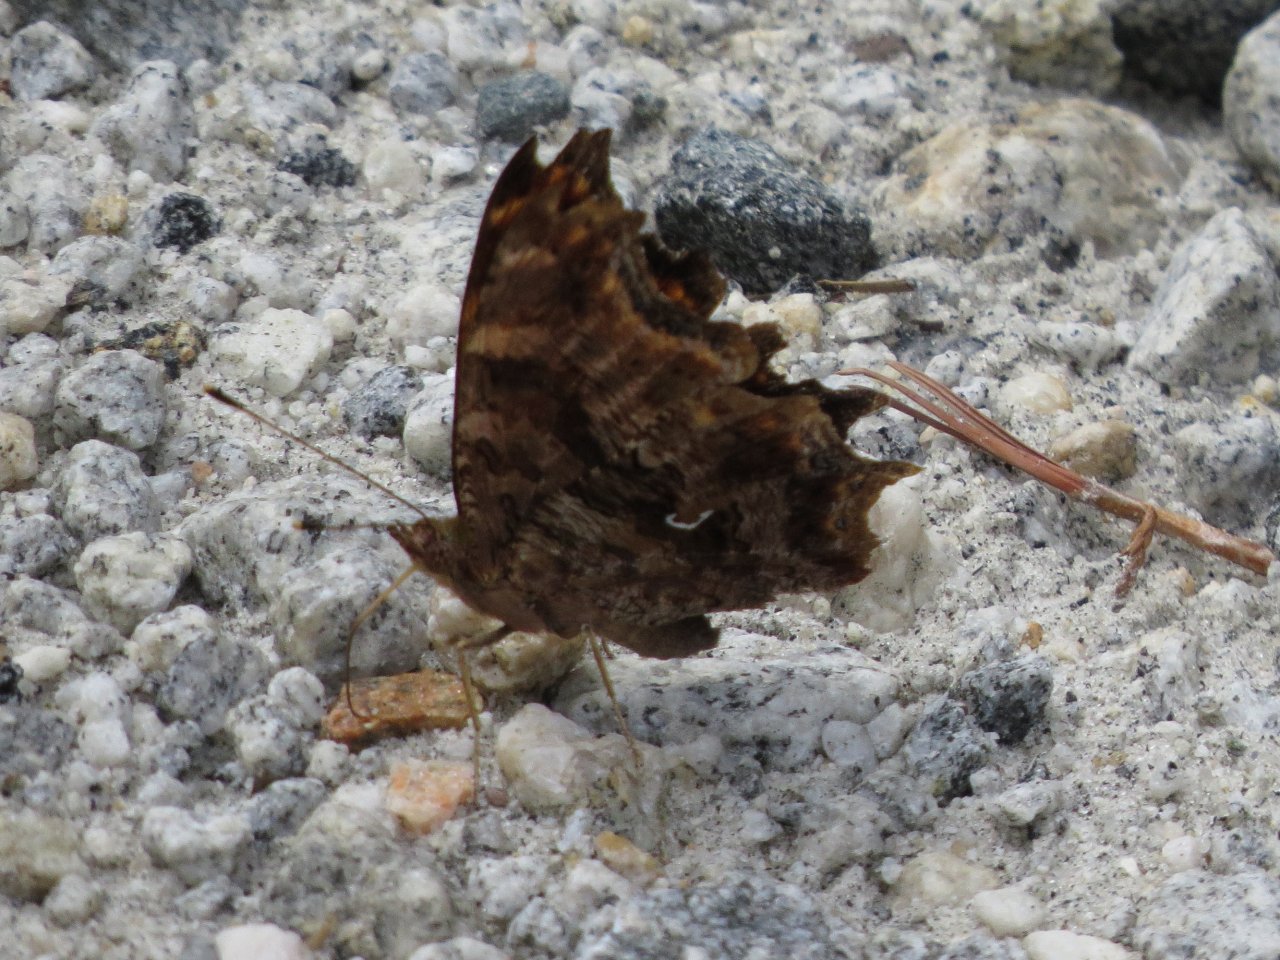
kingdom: Animalia
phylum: Arthropoda
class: Insecta
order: Lepidoptera
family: Nymphalidae
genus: Polygonia
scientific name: Polygonia comma
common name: Eastern Comma
